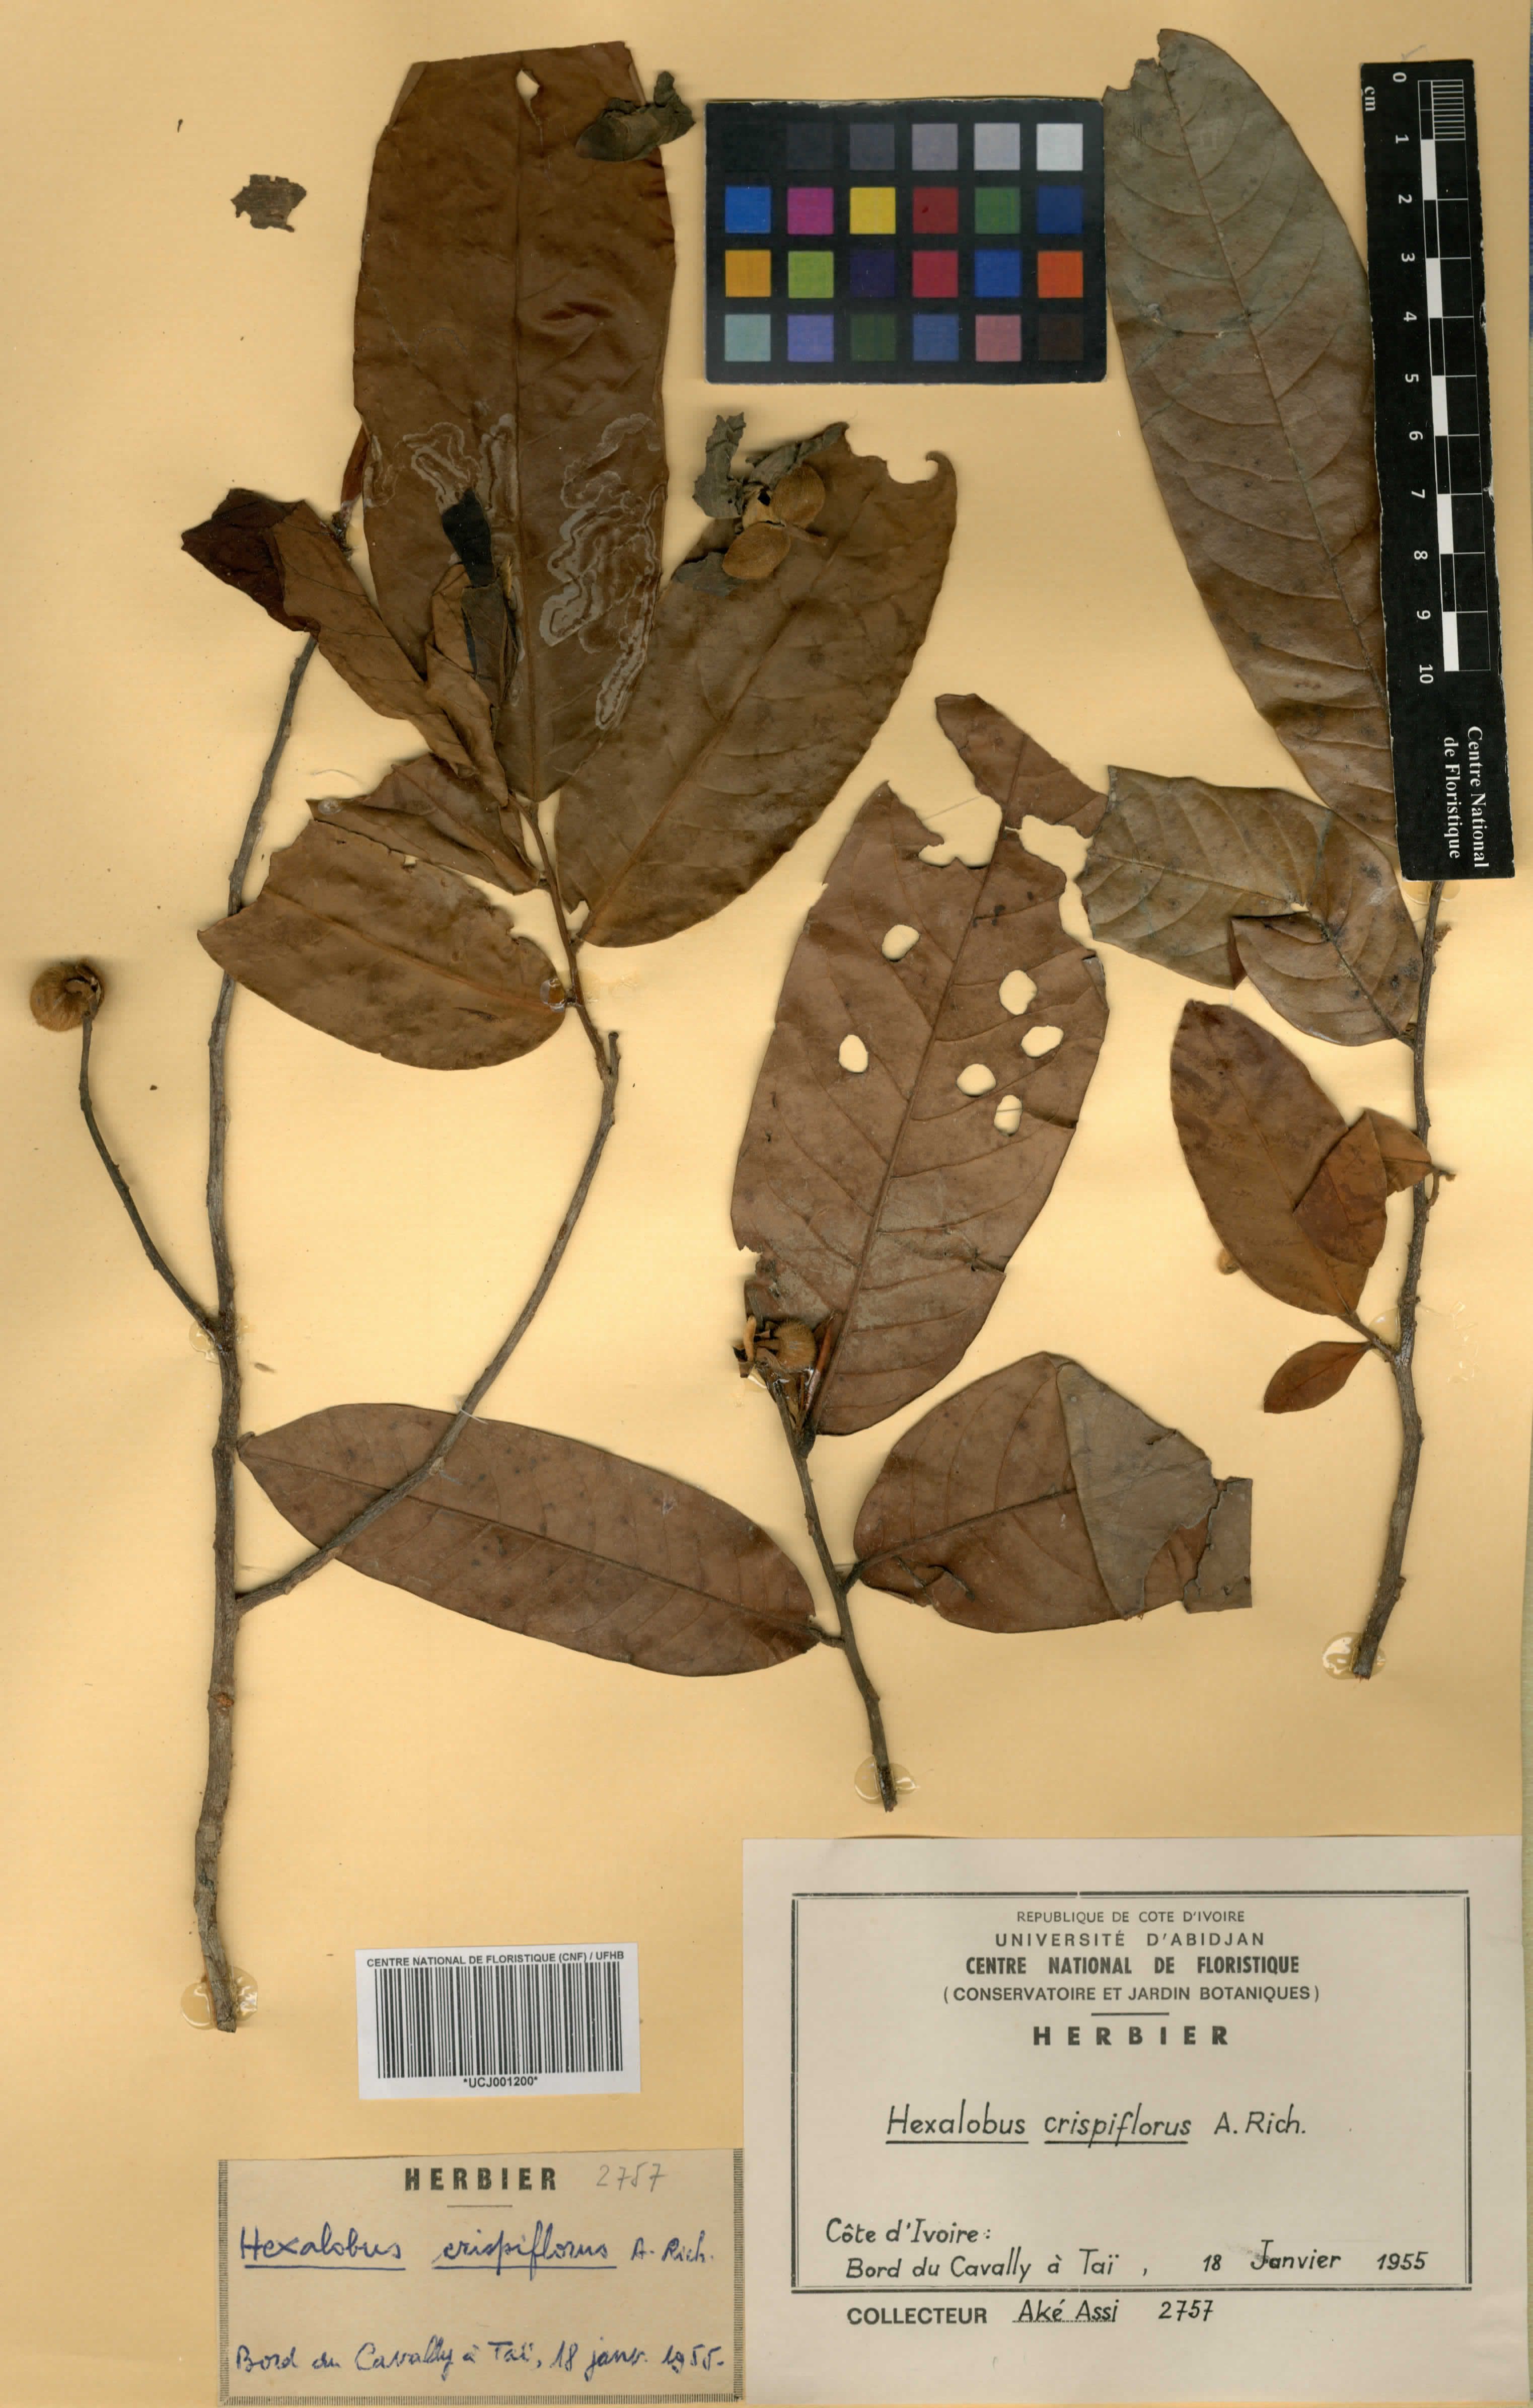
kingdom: Plantae
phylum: Tracheophyta
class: Magnoliopsida
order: Magnoliales
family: Annonaceae
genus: Hexalobus
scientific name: Hexalobus crispiflorus
